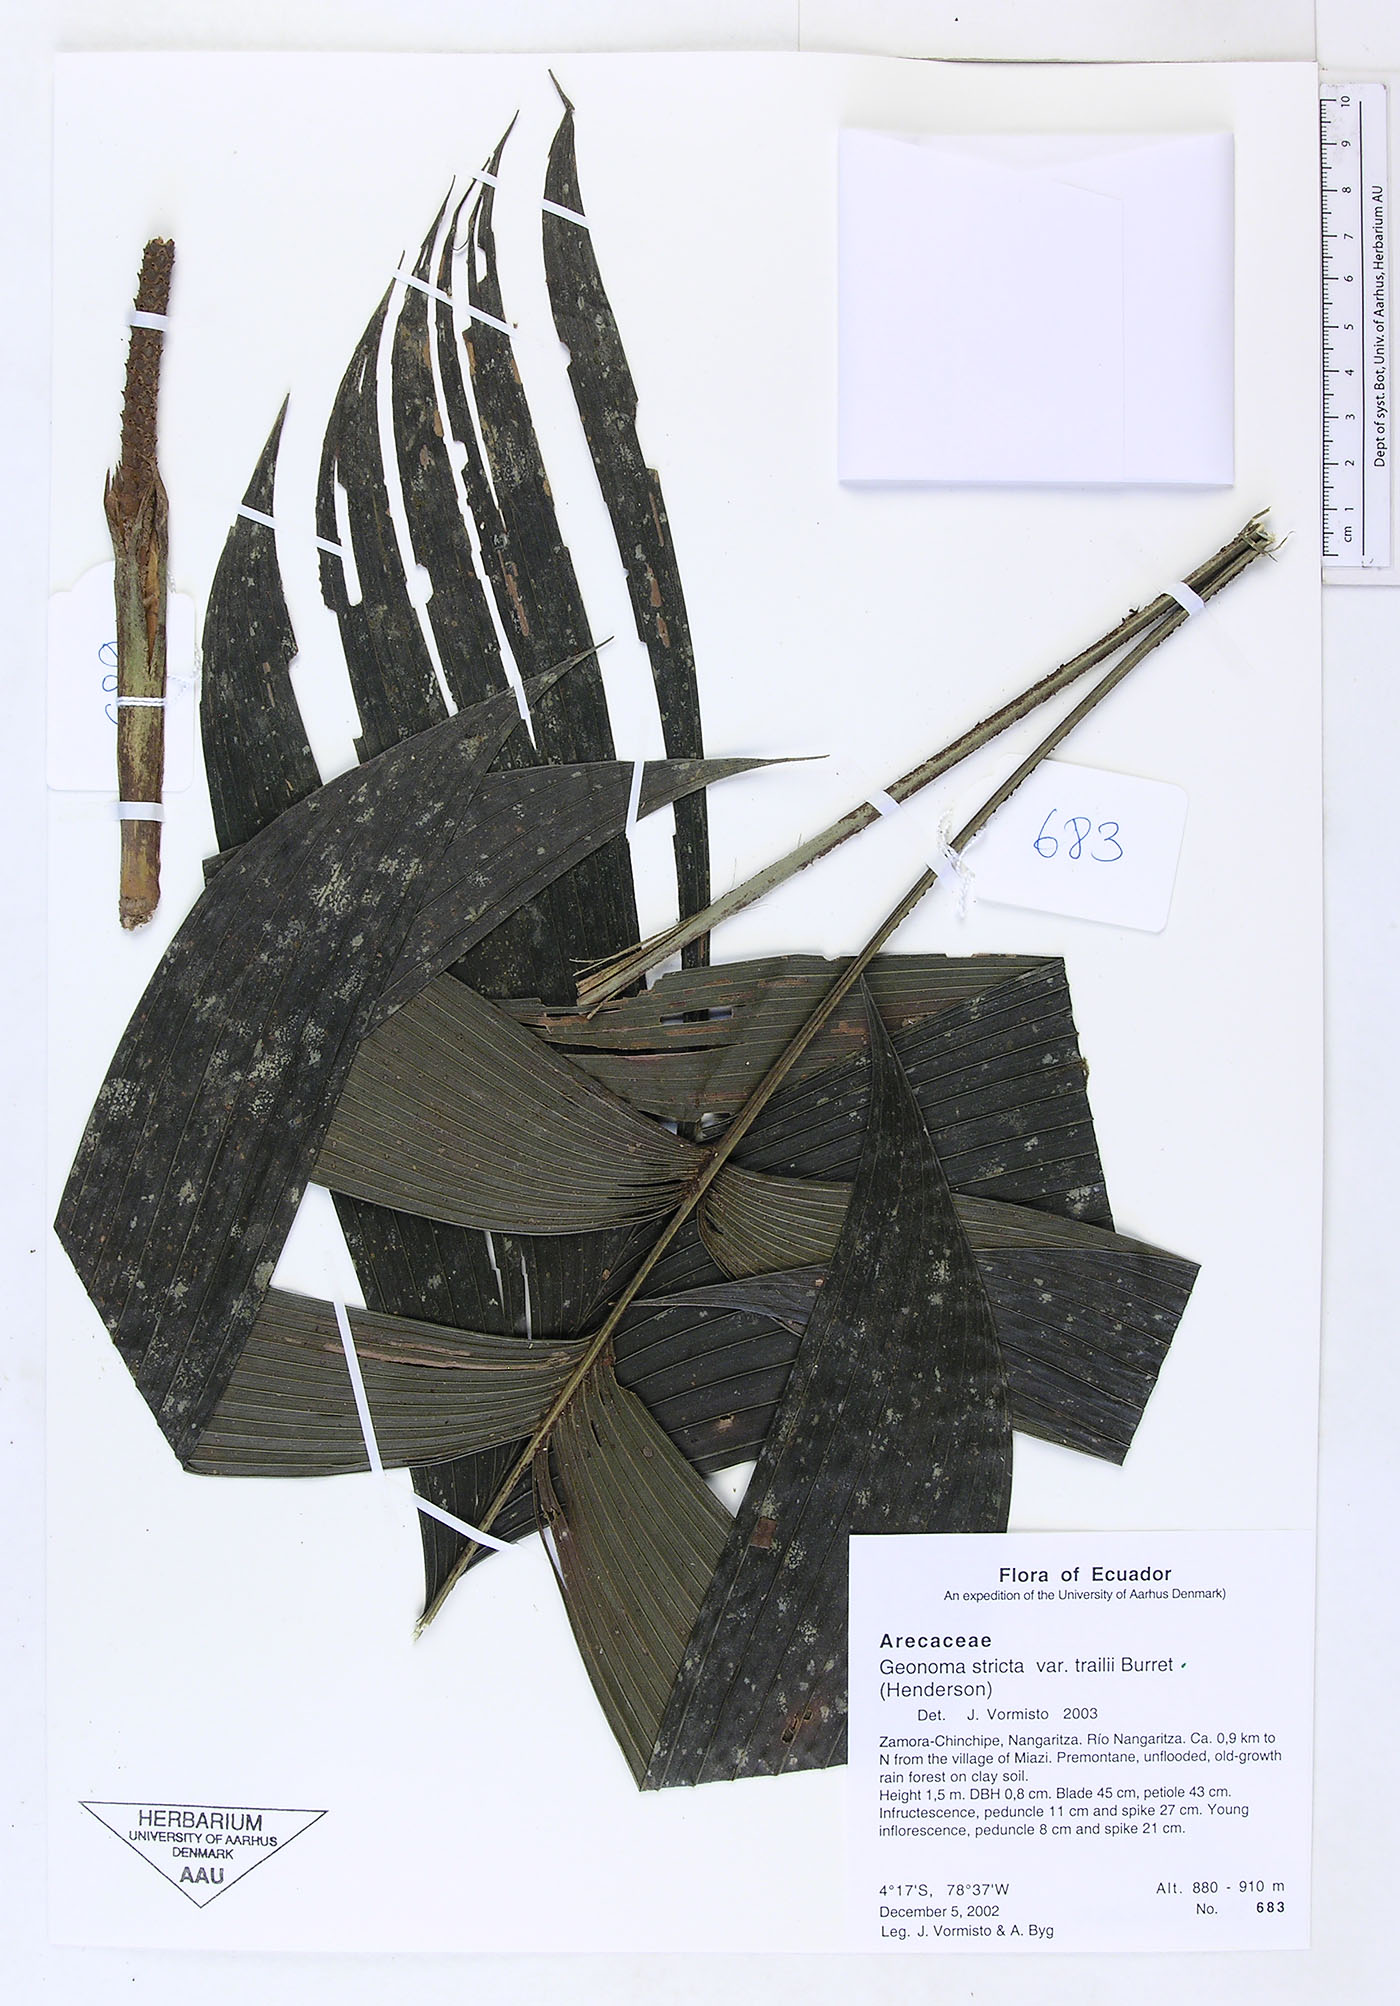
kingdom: Plantae
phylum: Tracheophyta
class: Liliopsida
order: Arecales
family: Arecaceae
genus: Geonoma
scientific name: Geonoma stricta
